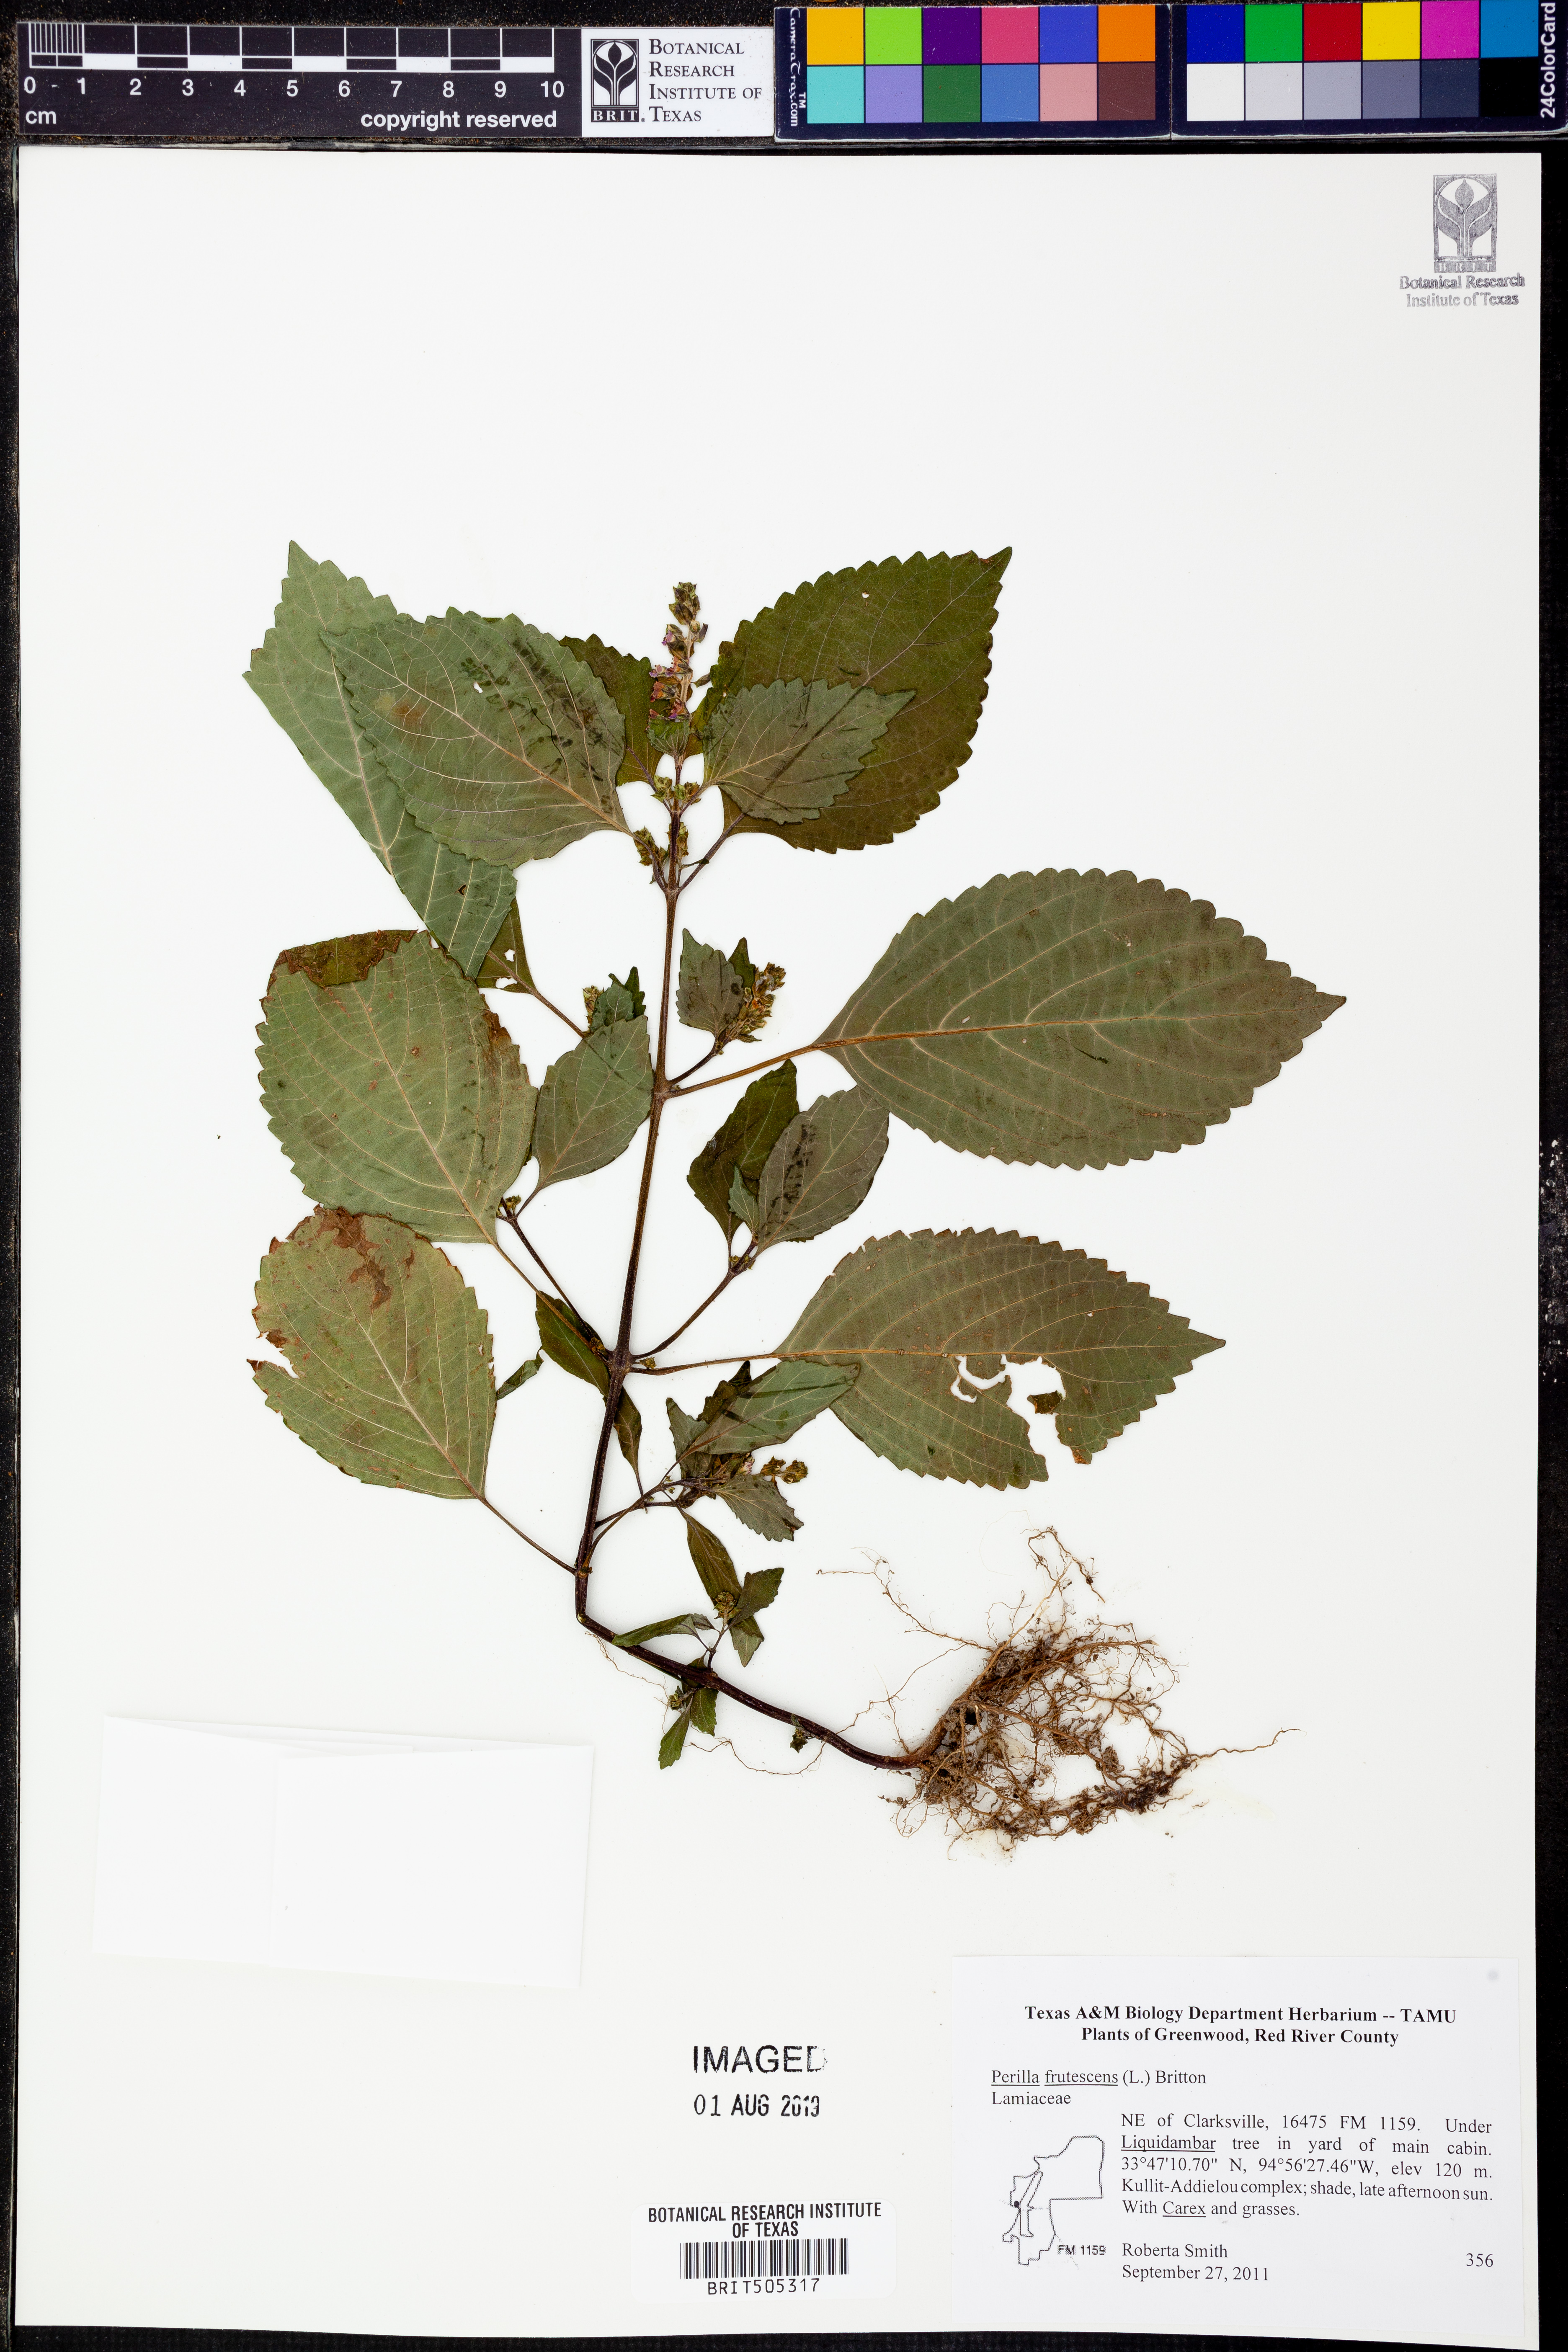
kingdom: Plantae
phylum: Tracheophyta
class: Magnoliopsida
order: Lamiales
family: Lamiaceae
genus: Perilla
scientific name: Perilla frutescens
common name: Perilla
